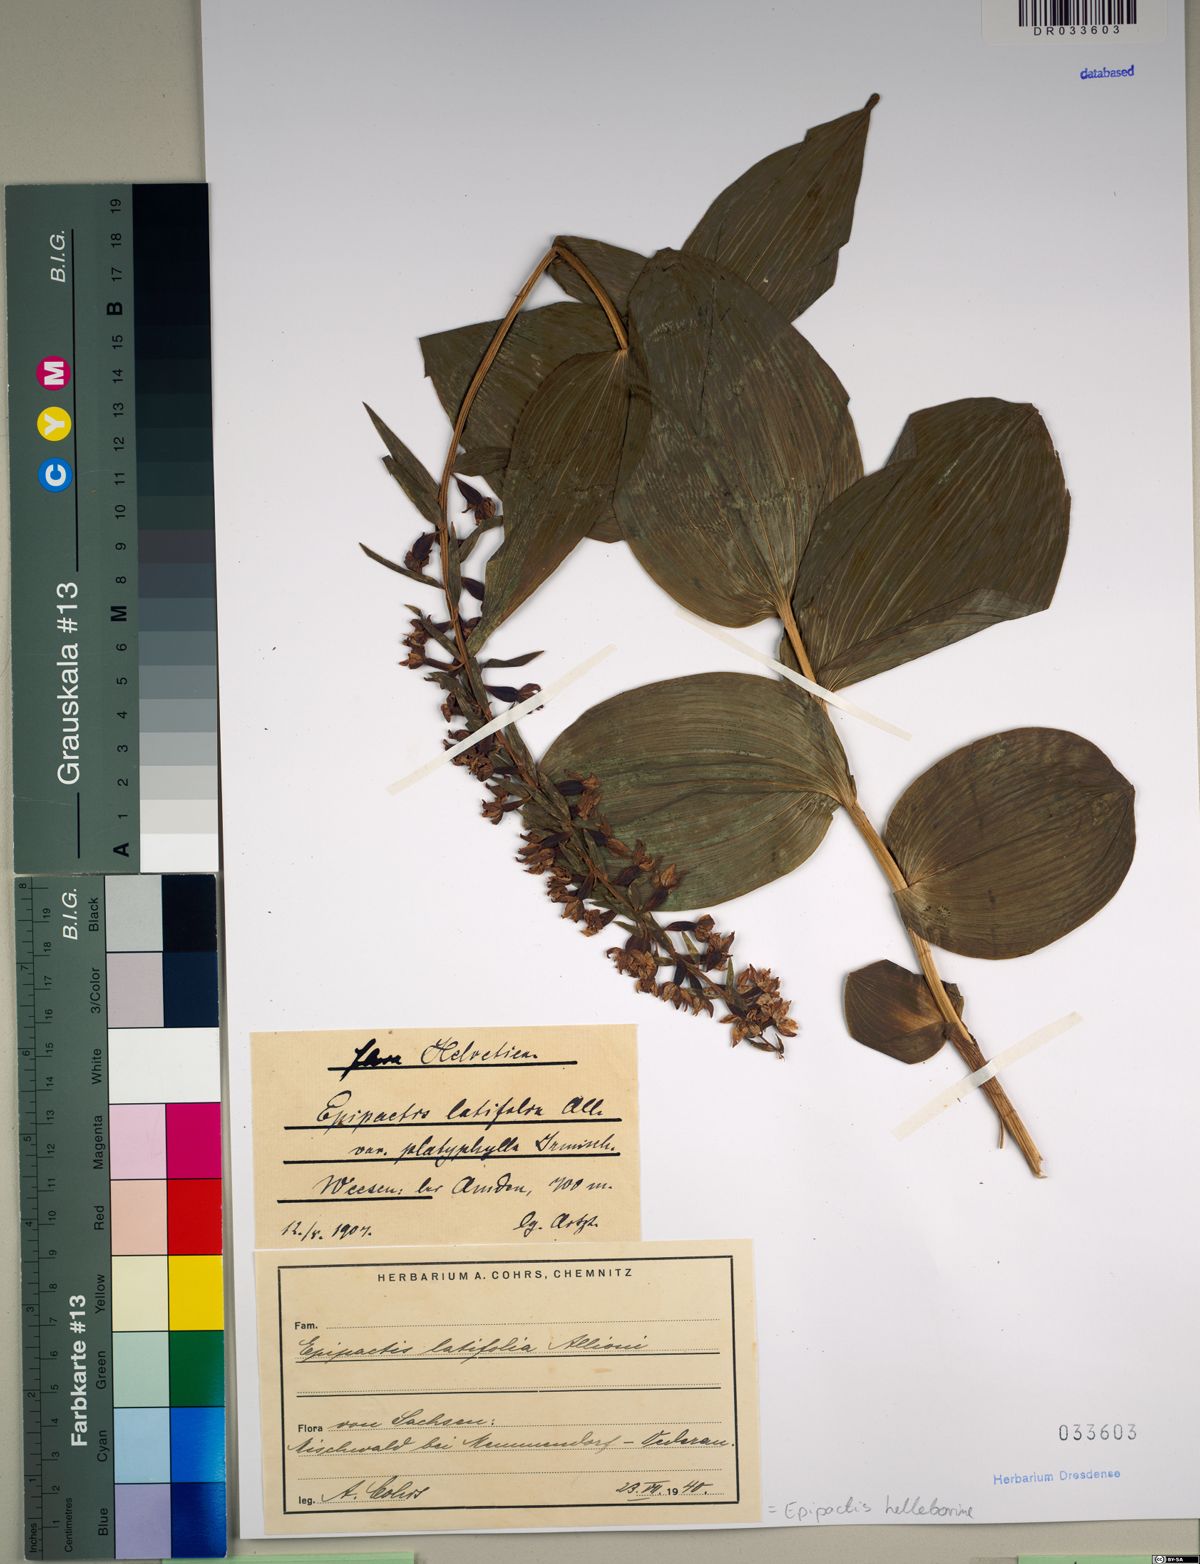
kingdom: Plantae
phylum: Tracheophyta
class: Liliopsida
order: Asparagales
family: Orchidaceae
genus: Epipactis
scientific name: Epipactis helleborine
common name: Broad-leaved helleborine
